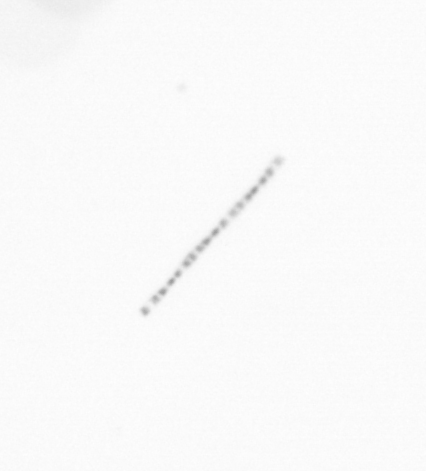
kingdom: Chromista
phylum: Ochrophyta
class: Bacillariophyceae
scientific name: Bacillariophyceae
